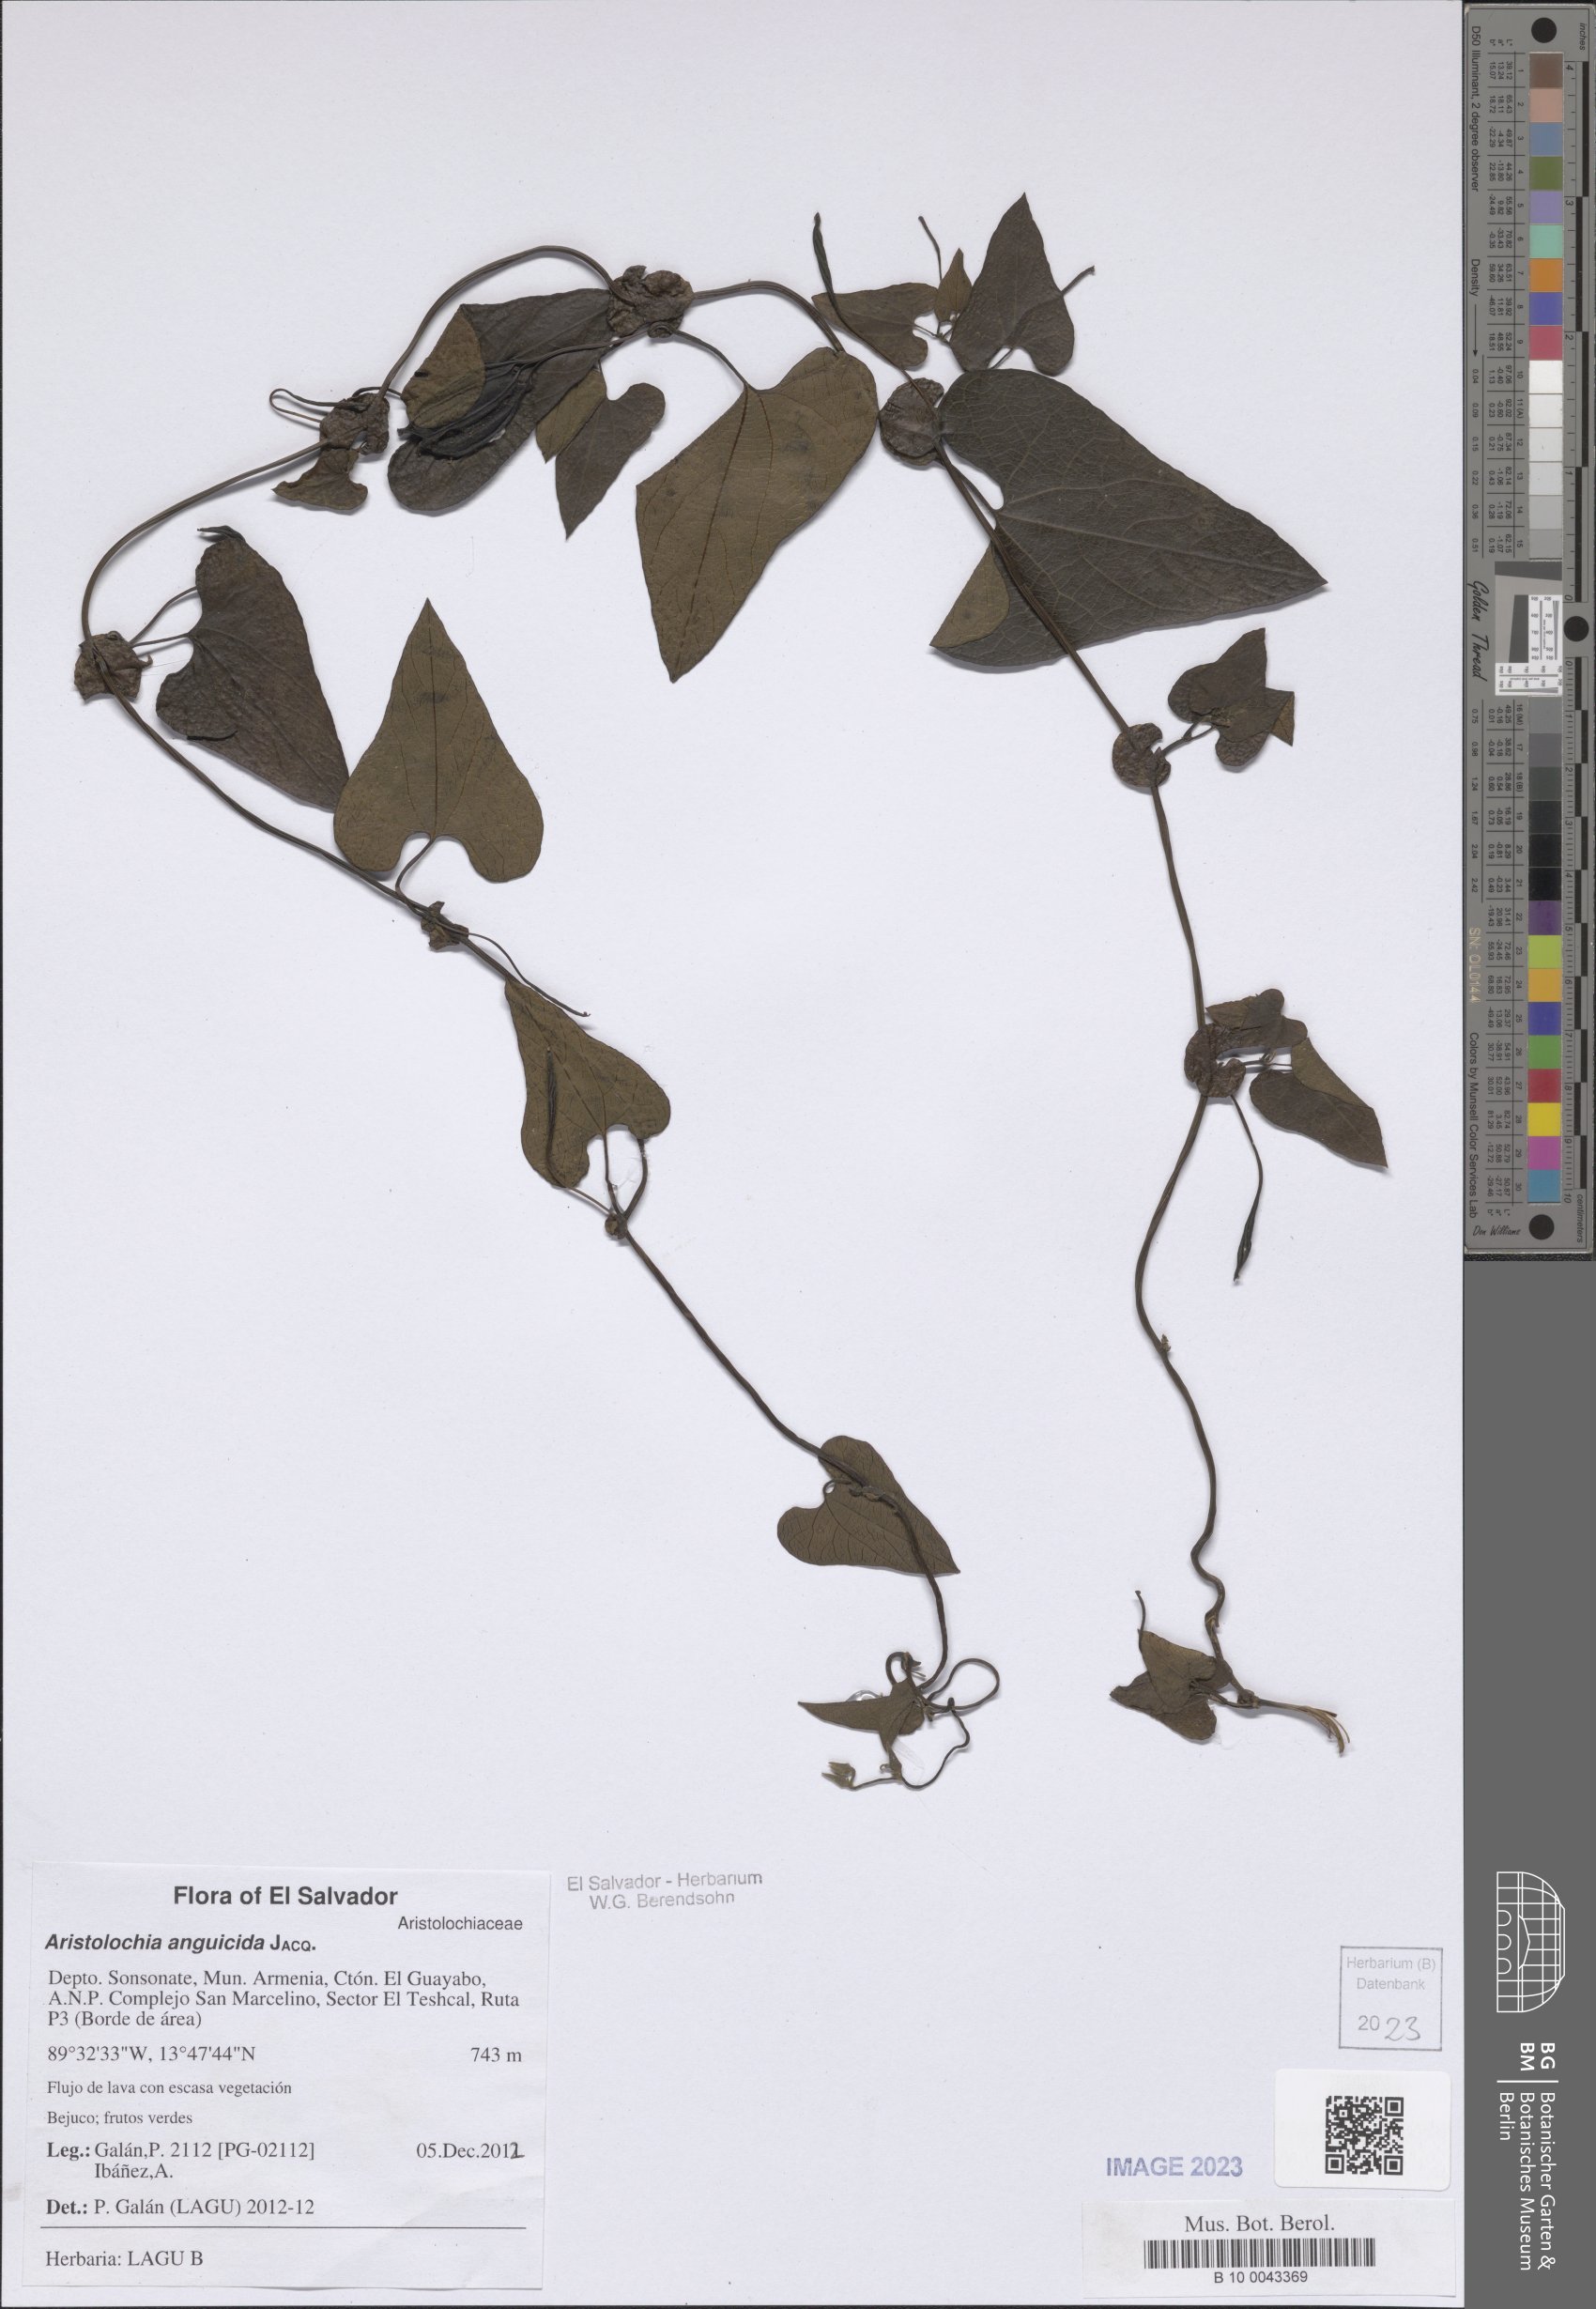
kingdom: Plantae
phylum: Tracheophyta
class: Magnoliopsida
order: Piperales
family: Aristolochiaceae
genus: Aristolochia
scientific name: Aristolochia anguicida
